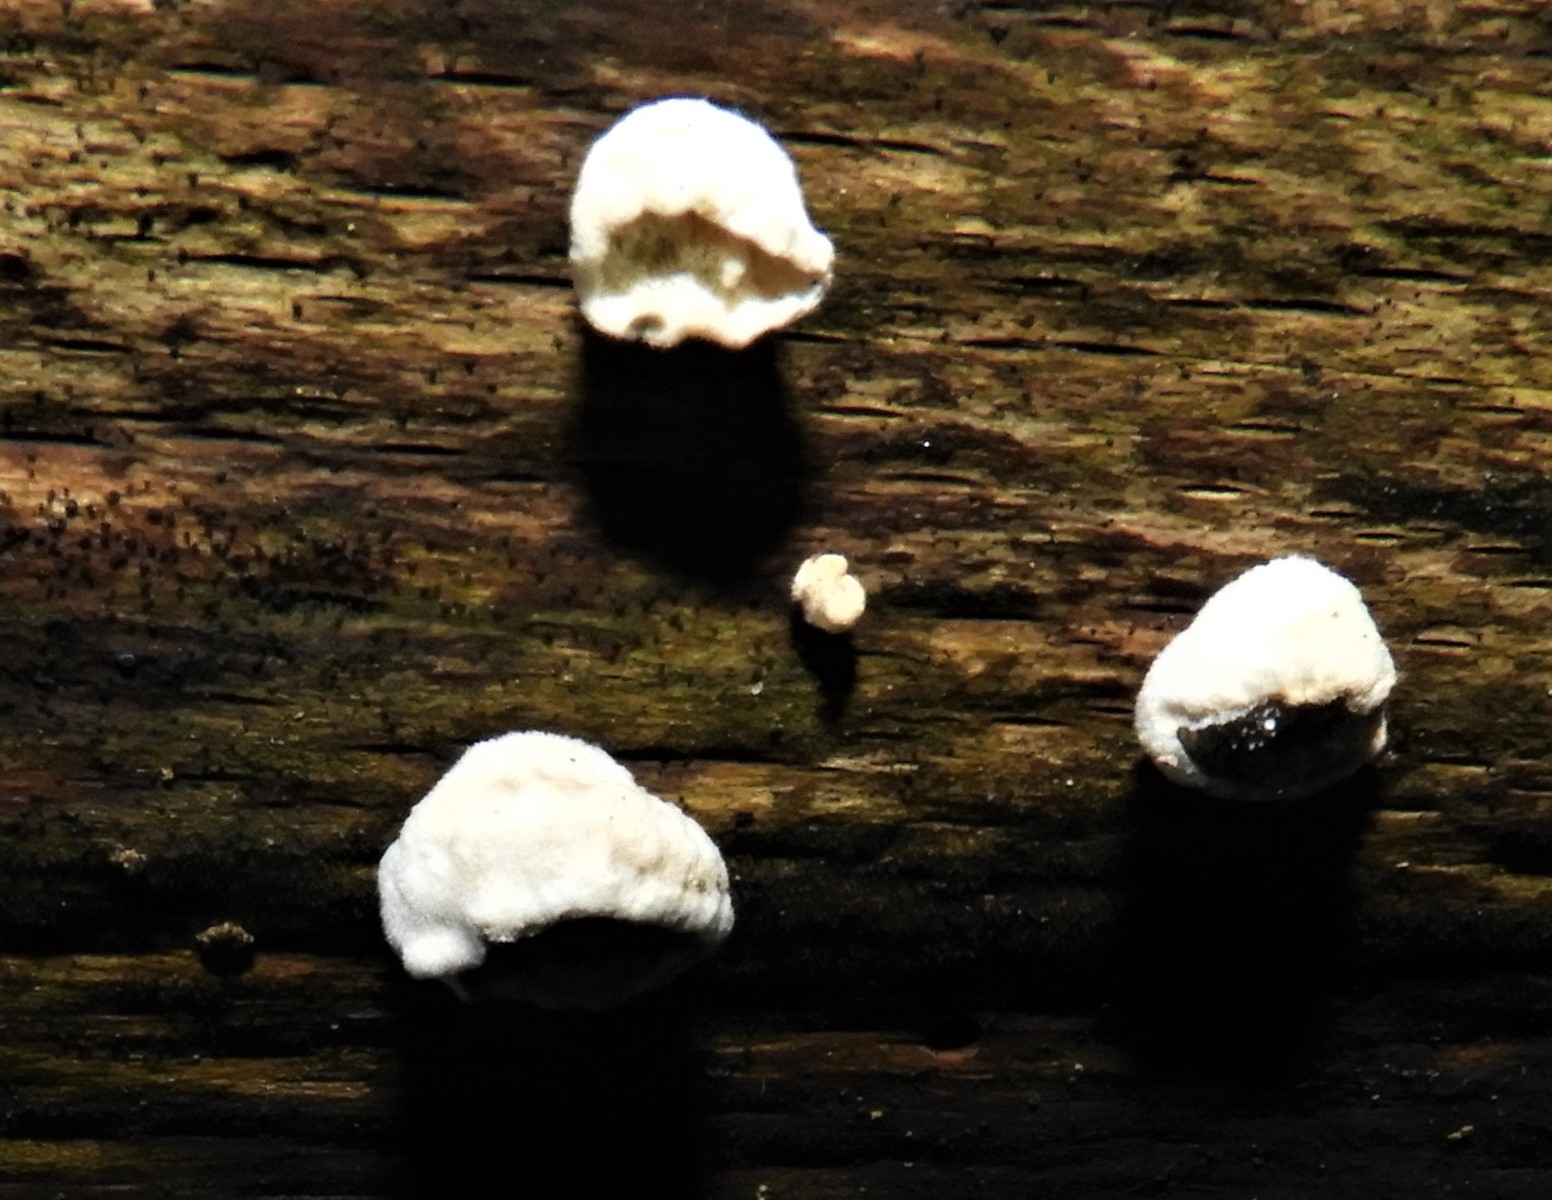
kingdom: Fungi
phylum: Basidiomycota
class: Agaricomycetes
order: Polyporales
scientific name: Polyporales
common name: poresvampordenen
